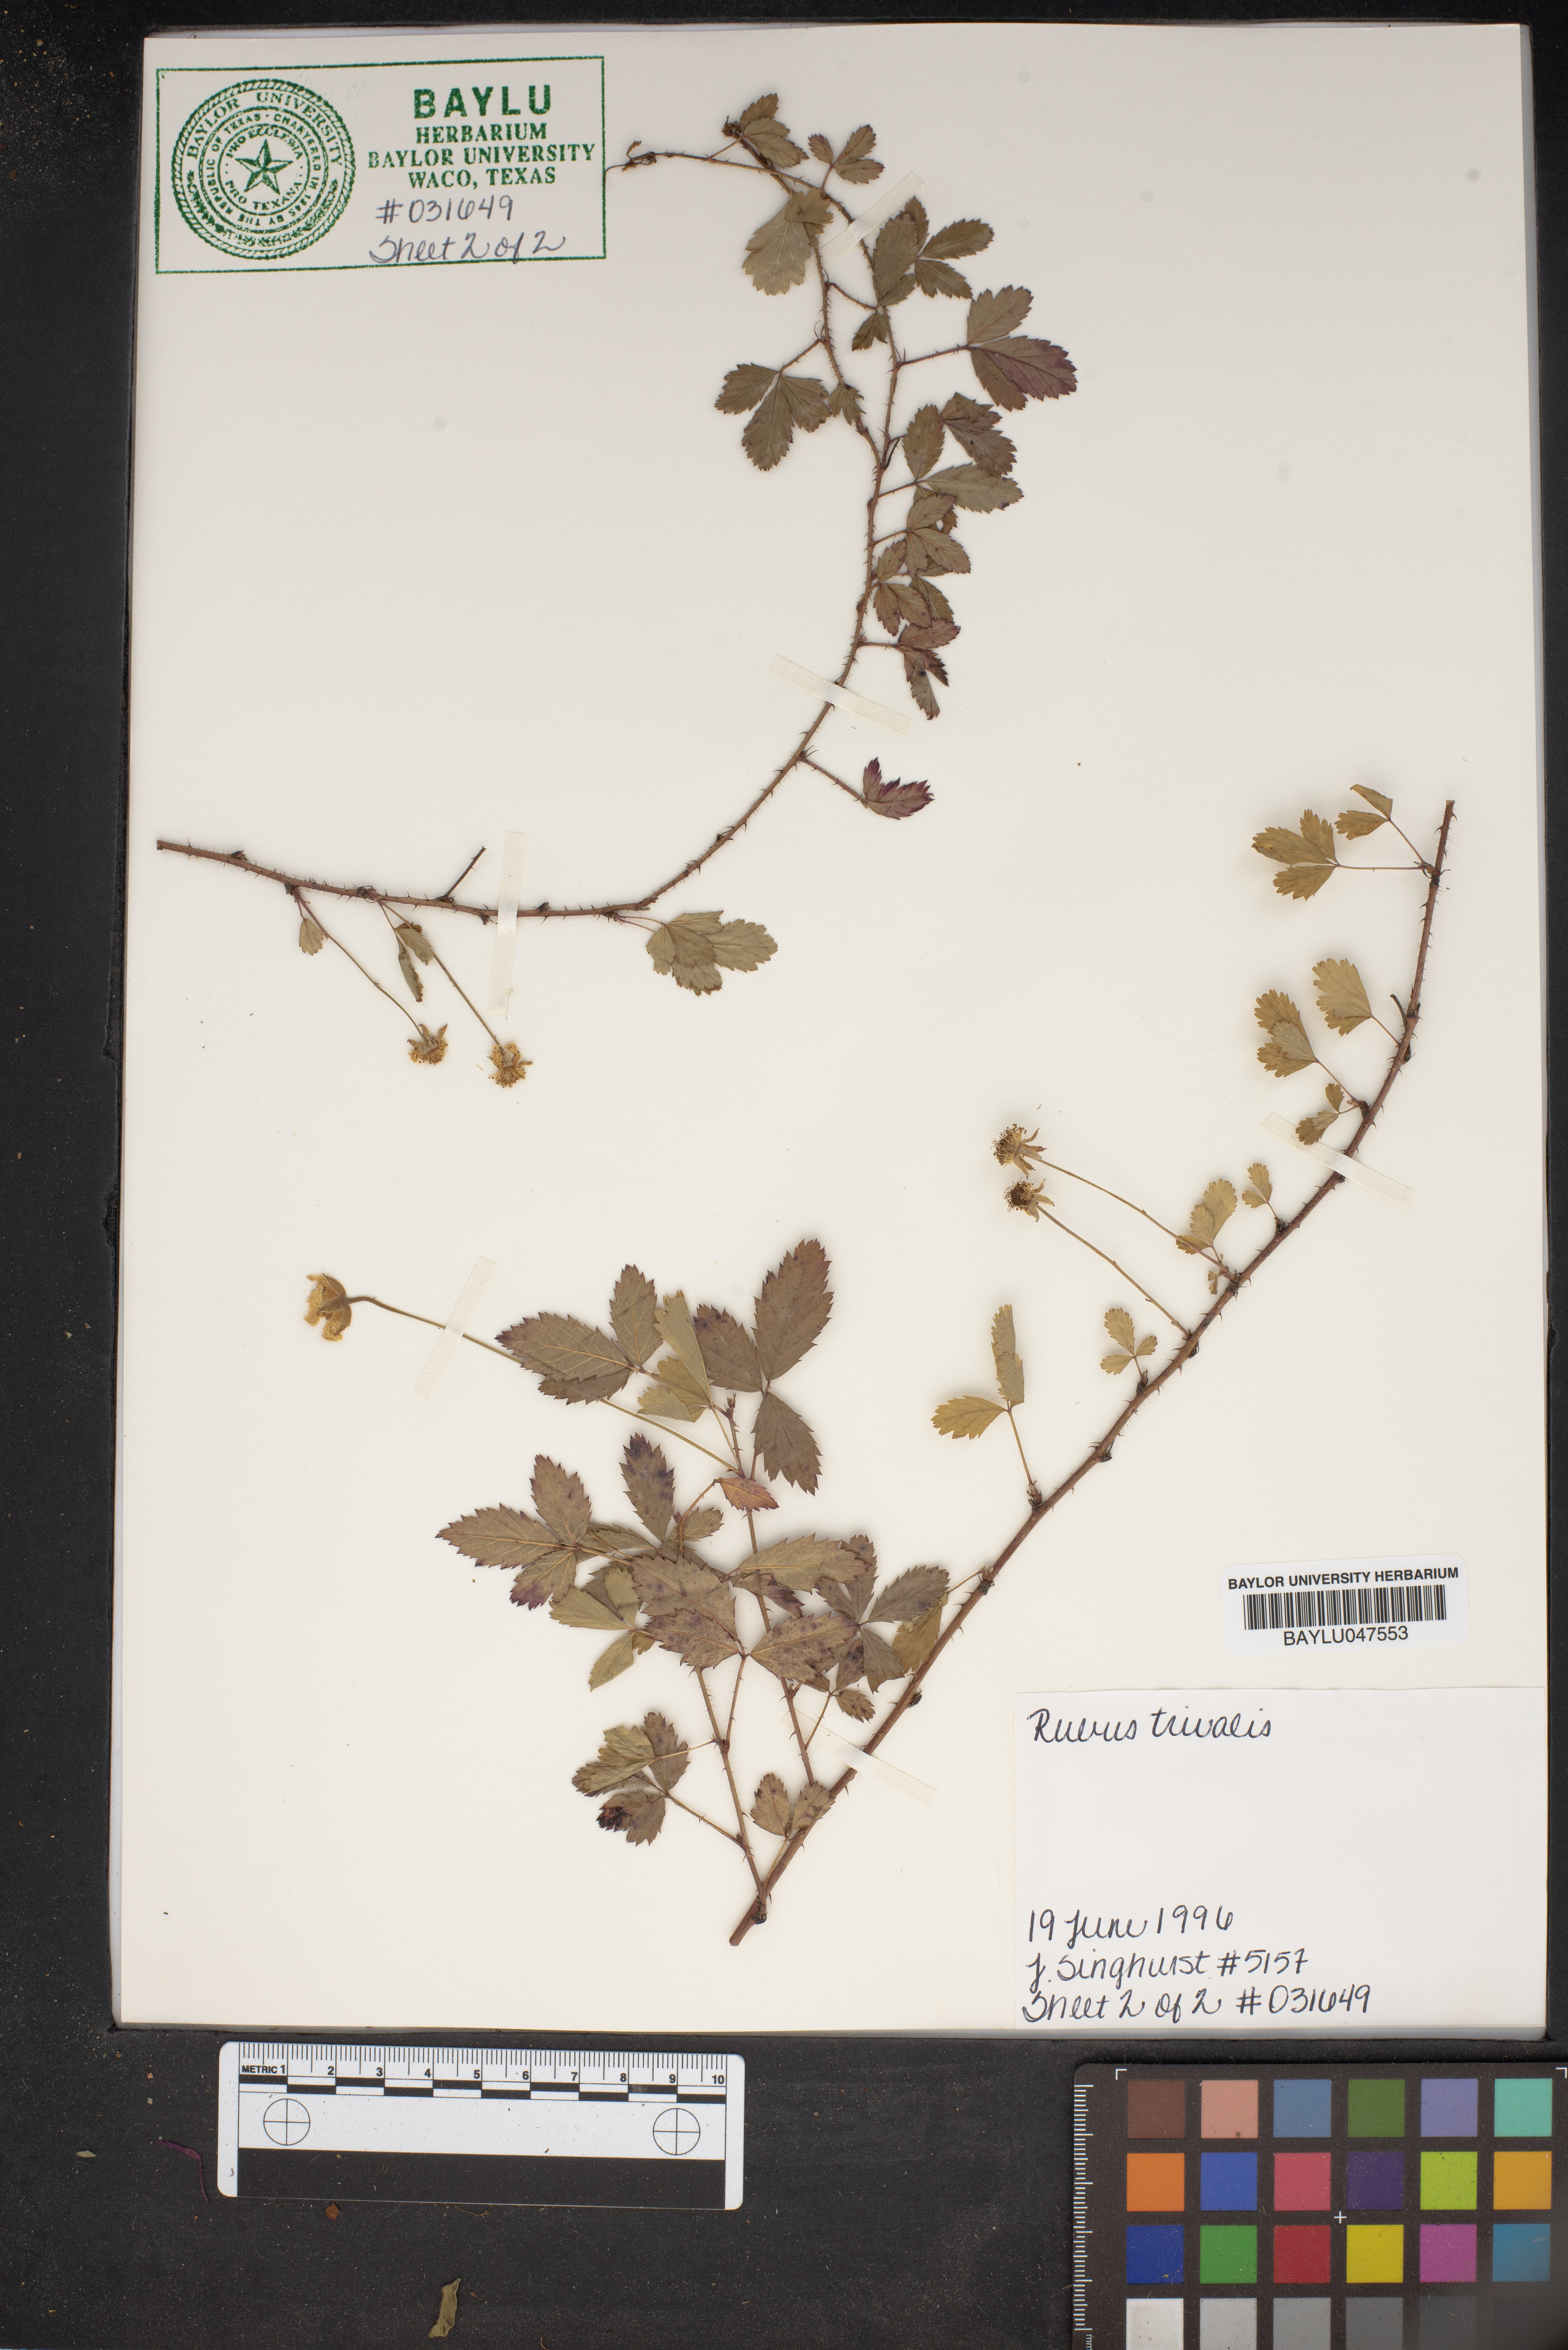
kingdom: Plantae
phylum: Tracheophyta
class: Magnoliopsida
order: Rosales
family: Rosaceae
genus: Rubus
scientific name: Rubus trivialis
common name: Southern dewberry
